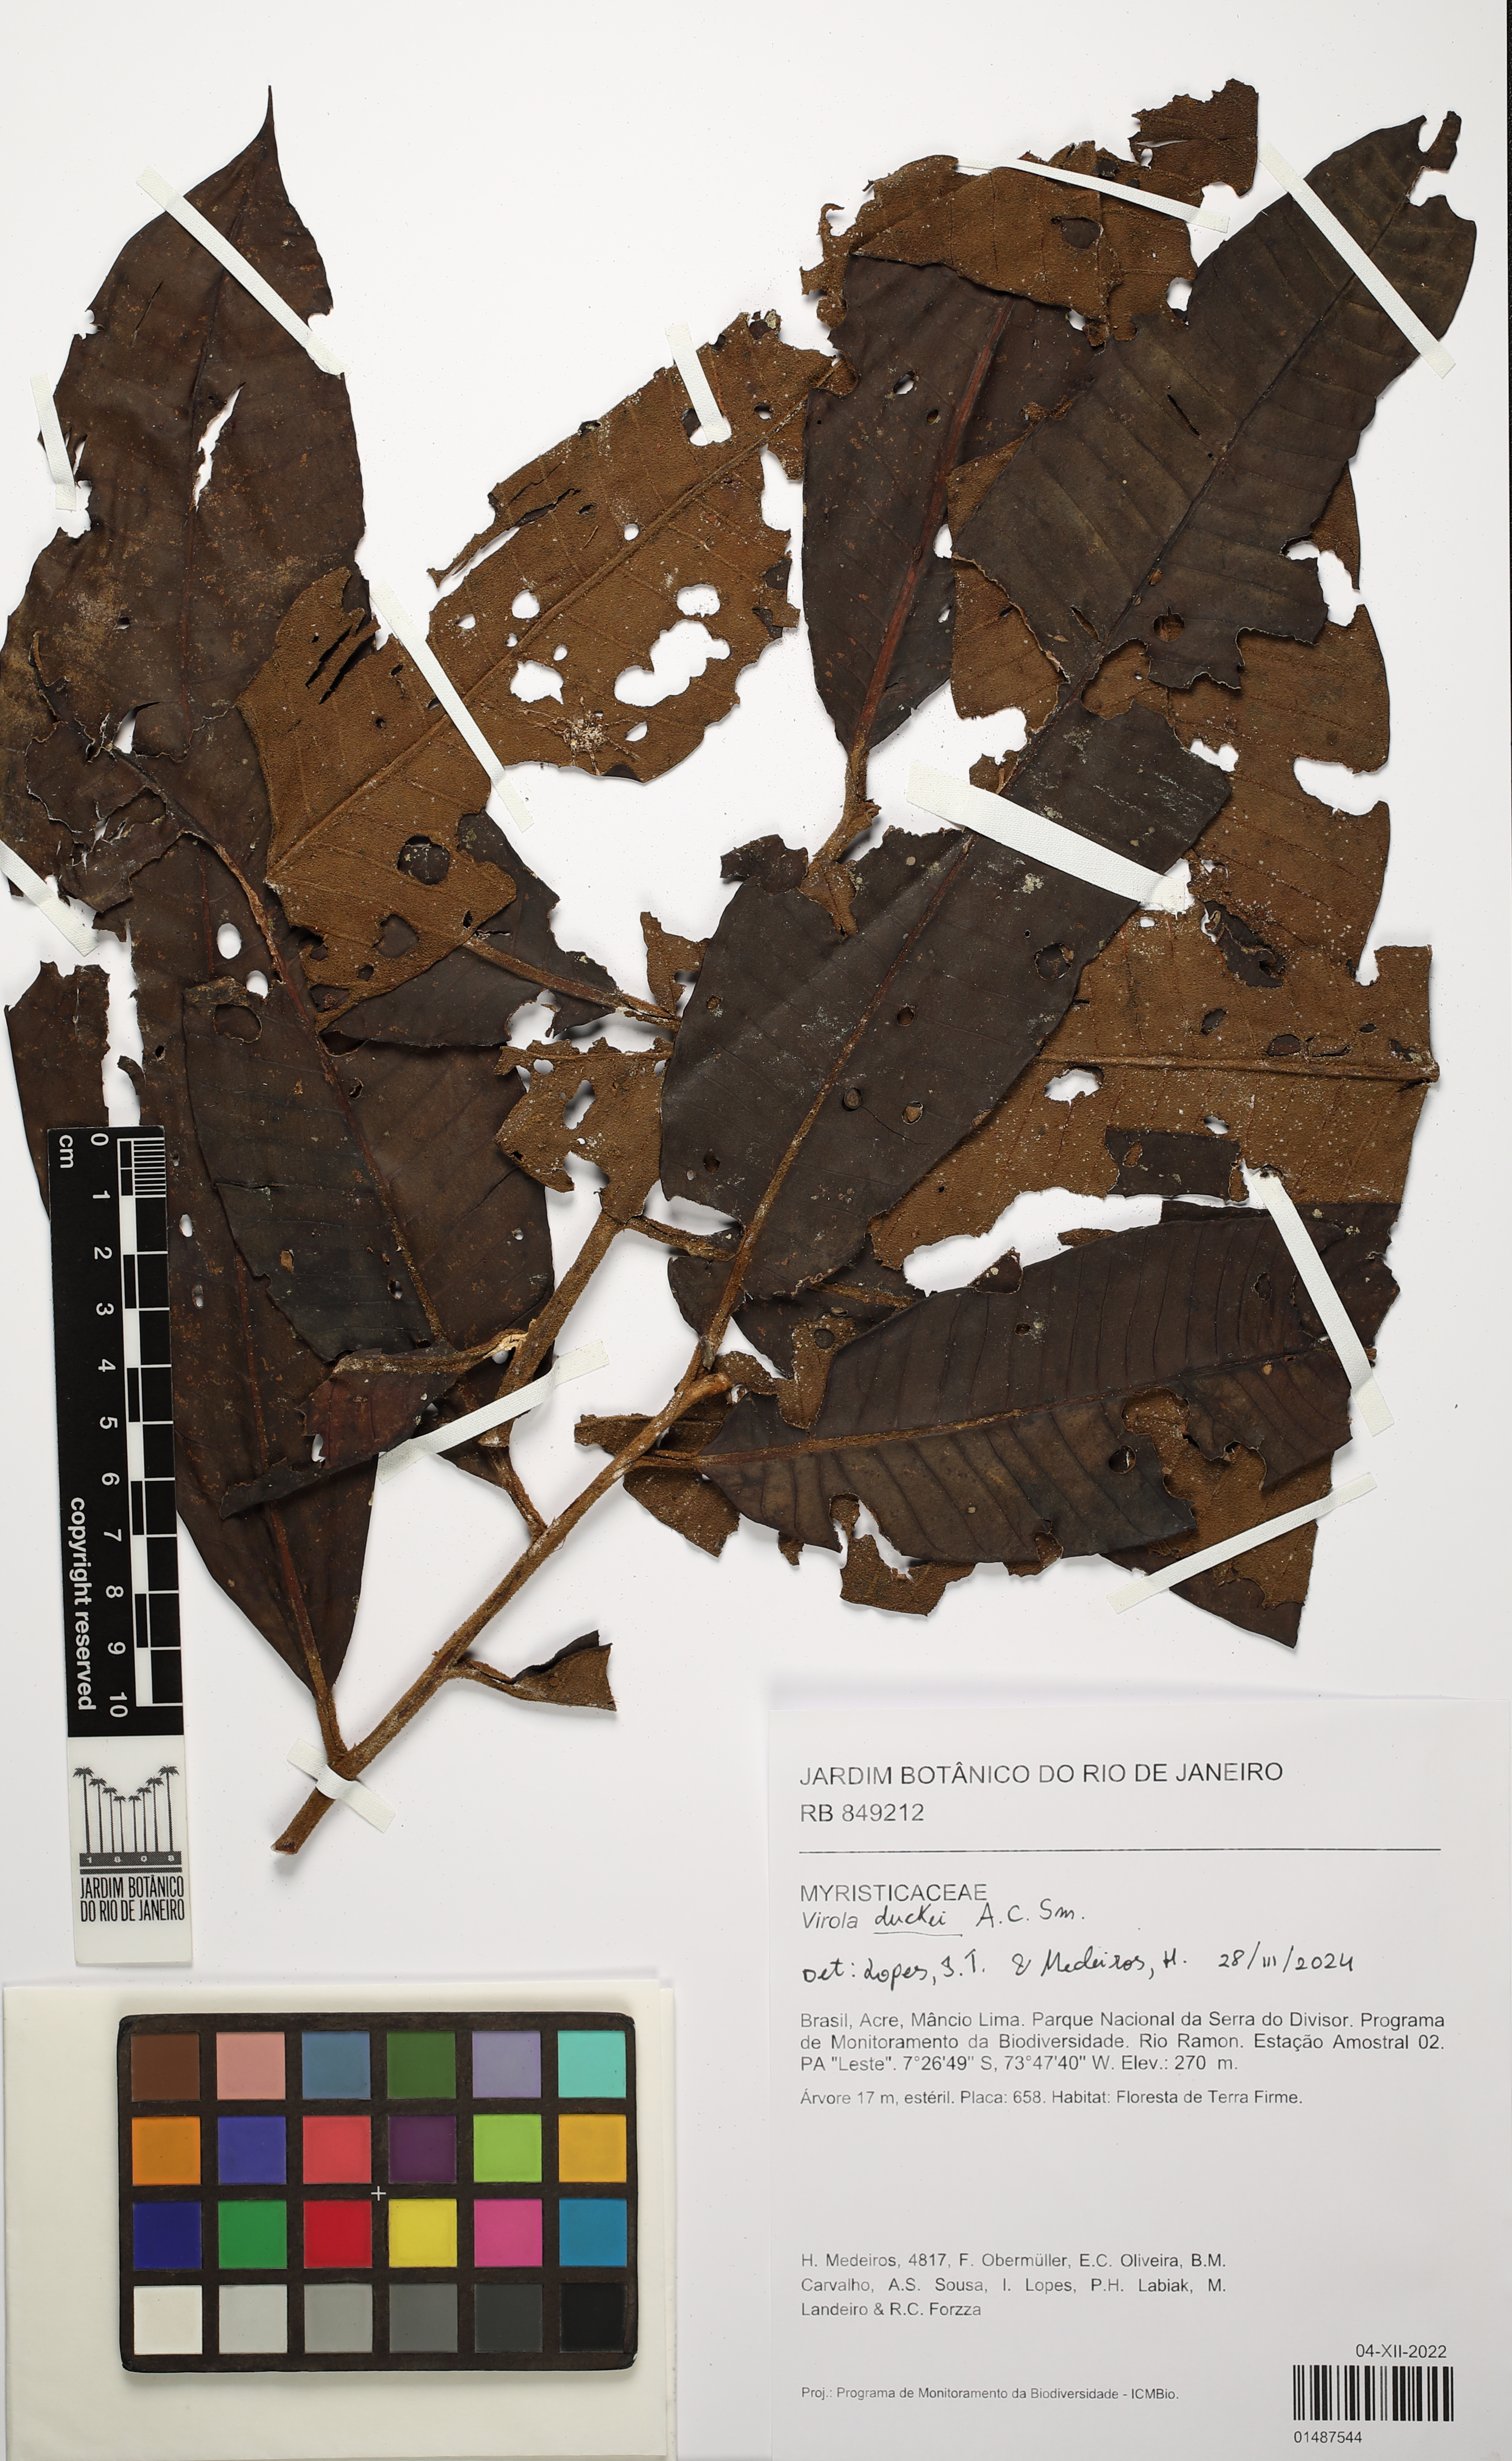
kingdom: Plantae
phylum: Tracheophyta
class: Magnoliopsida
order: Magnoliales
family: Myristicaceae
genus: Virola
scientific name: Virola duckei
